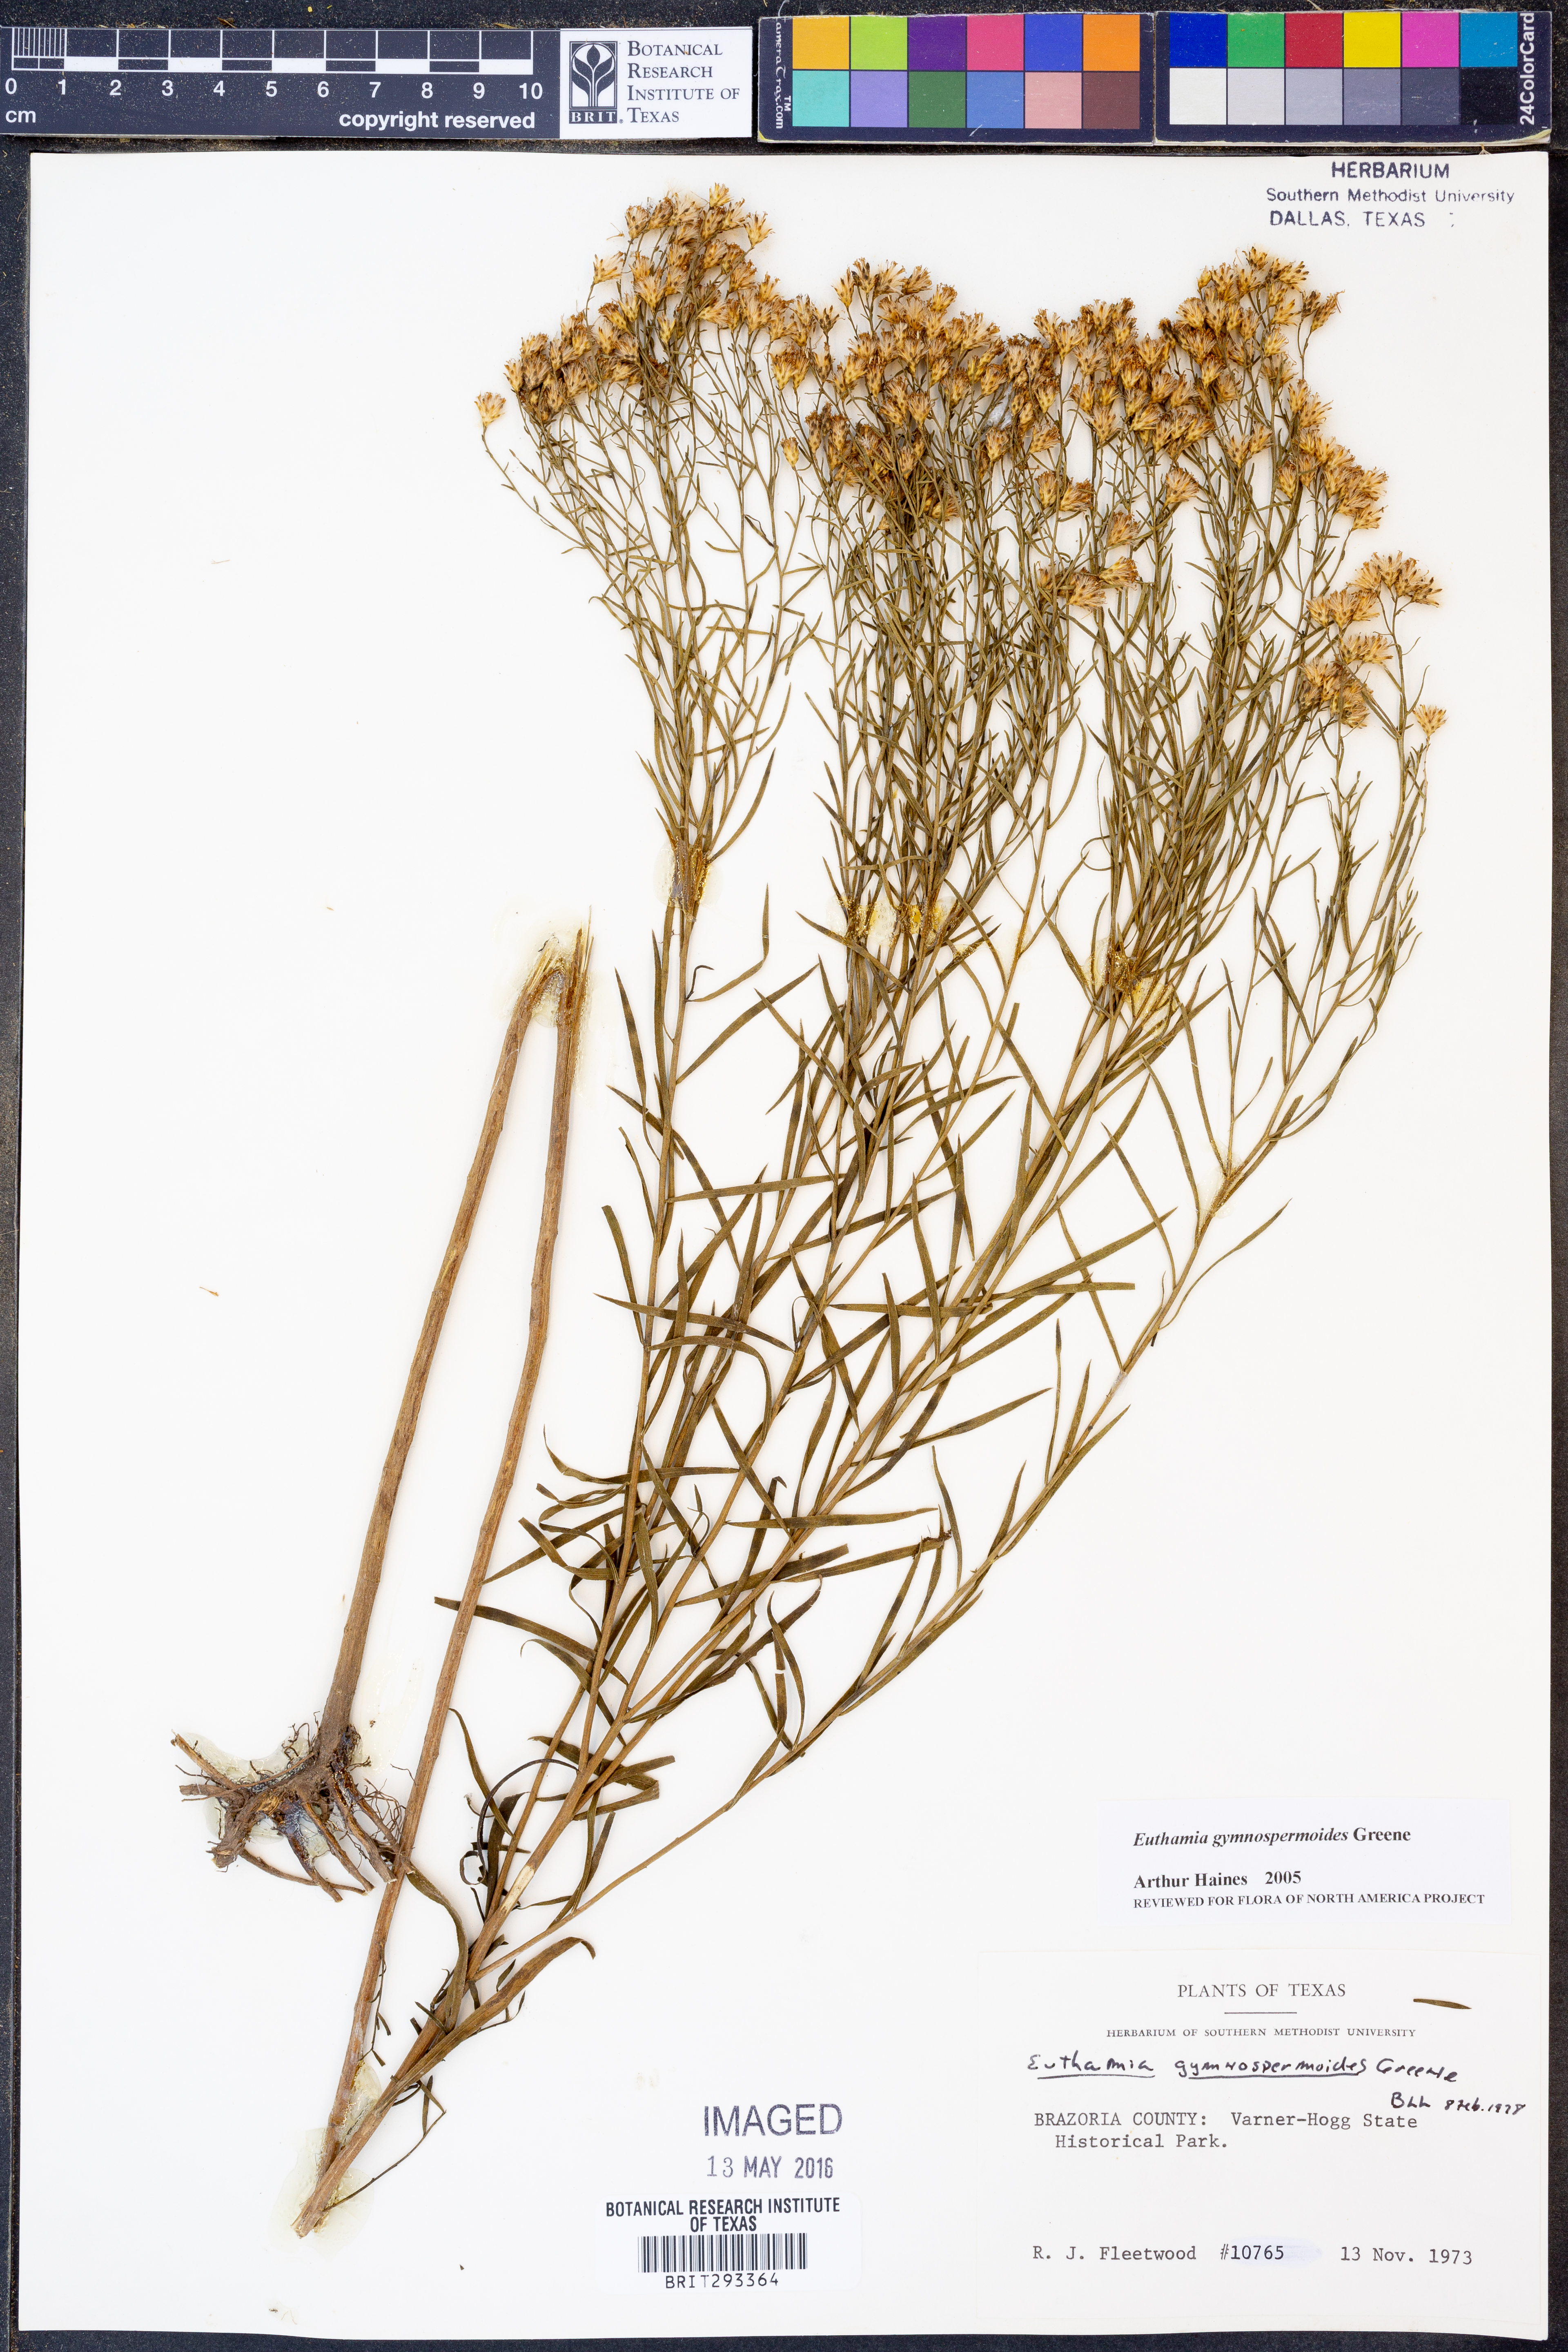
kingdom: Plantae
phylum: Tracheophyta
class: Magnoliopsida
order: Asterales
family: Asteraceae
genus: Euthamia
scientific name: Euthamia gymnospermoides
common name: Great plains goldentop
